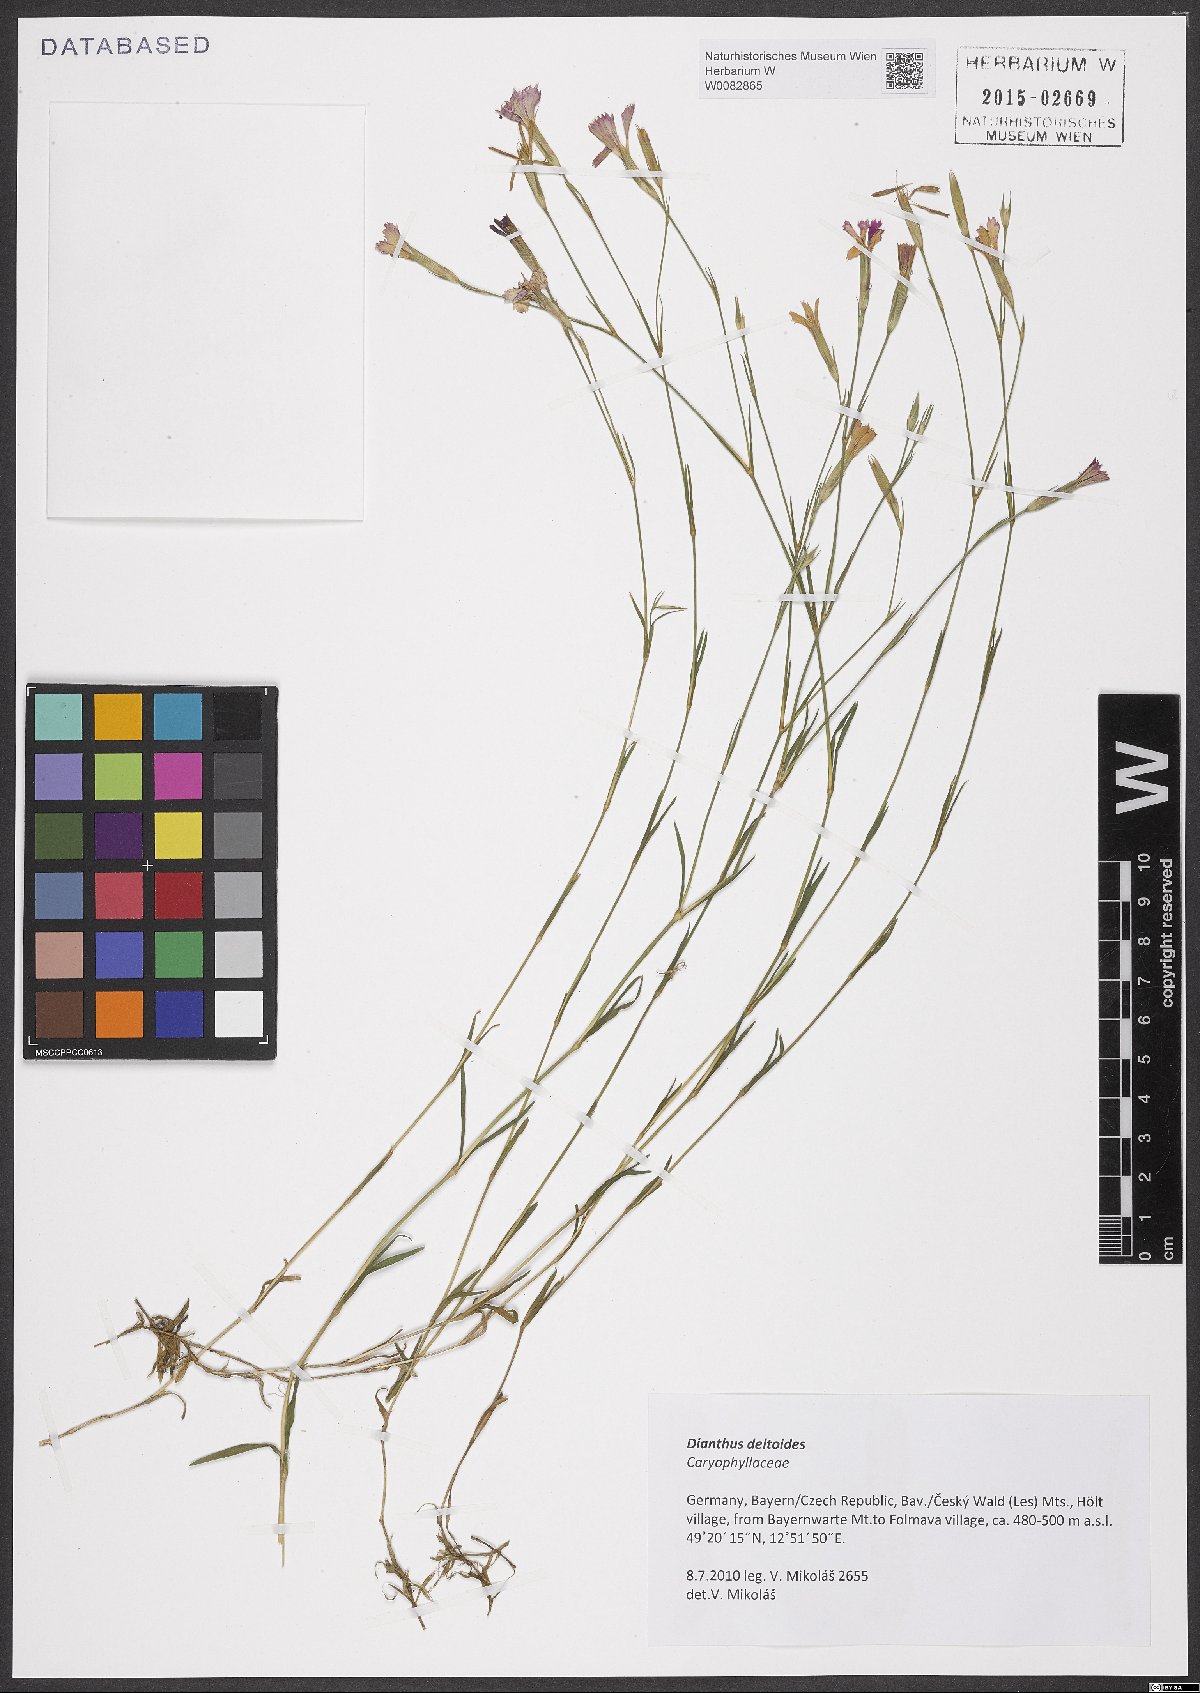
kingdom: Plantae
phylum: Tracheophyta
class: Magnoliopsida
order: Caryophyllales
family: Caryophyllaceae
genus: Dianthus
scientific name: Dianthus deltoides
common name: Maiden pink
